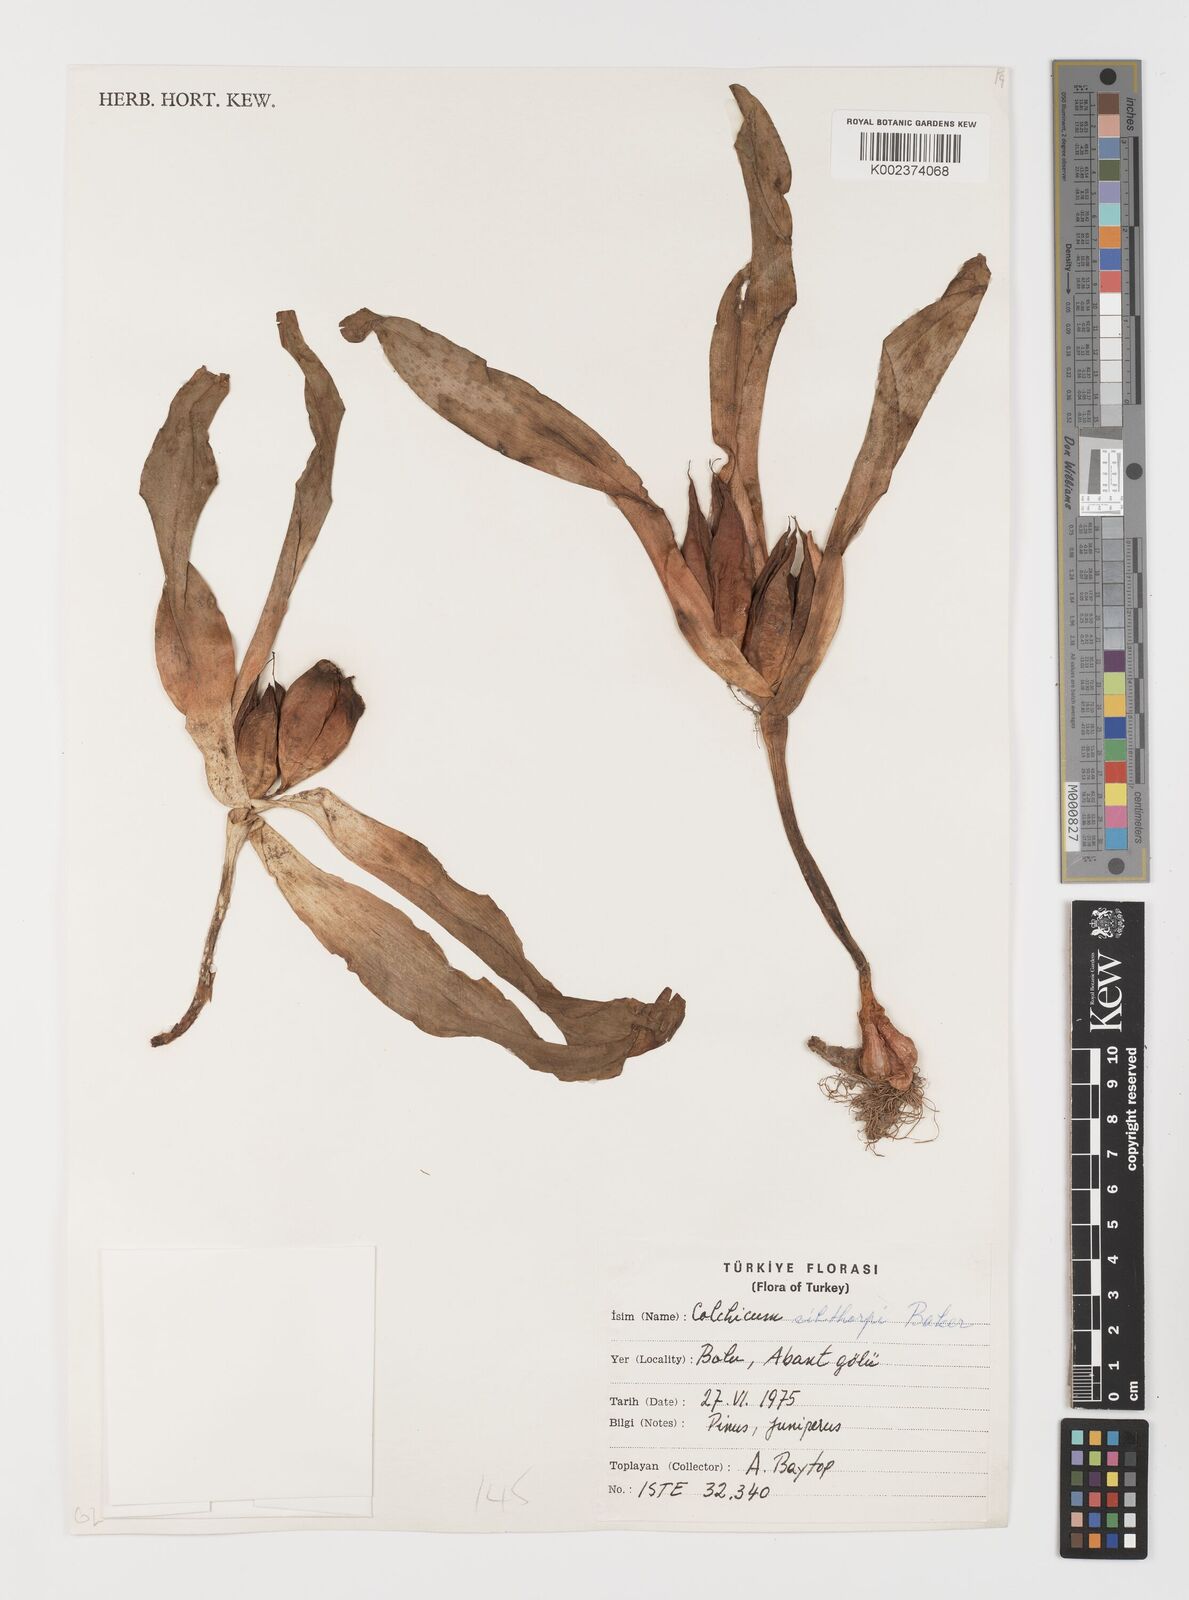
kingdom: Plantae
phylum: Tracheophyta
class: Liliopsida
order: Liliales
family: Colchicaceae
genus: Colchicum
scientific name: Colchicum bivonae
